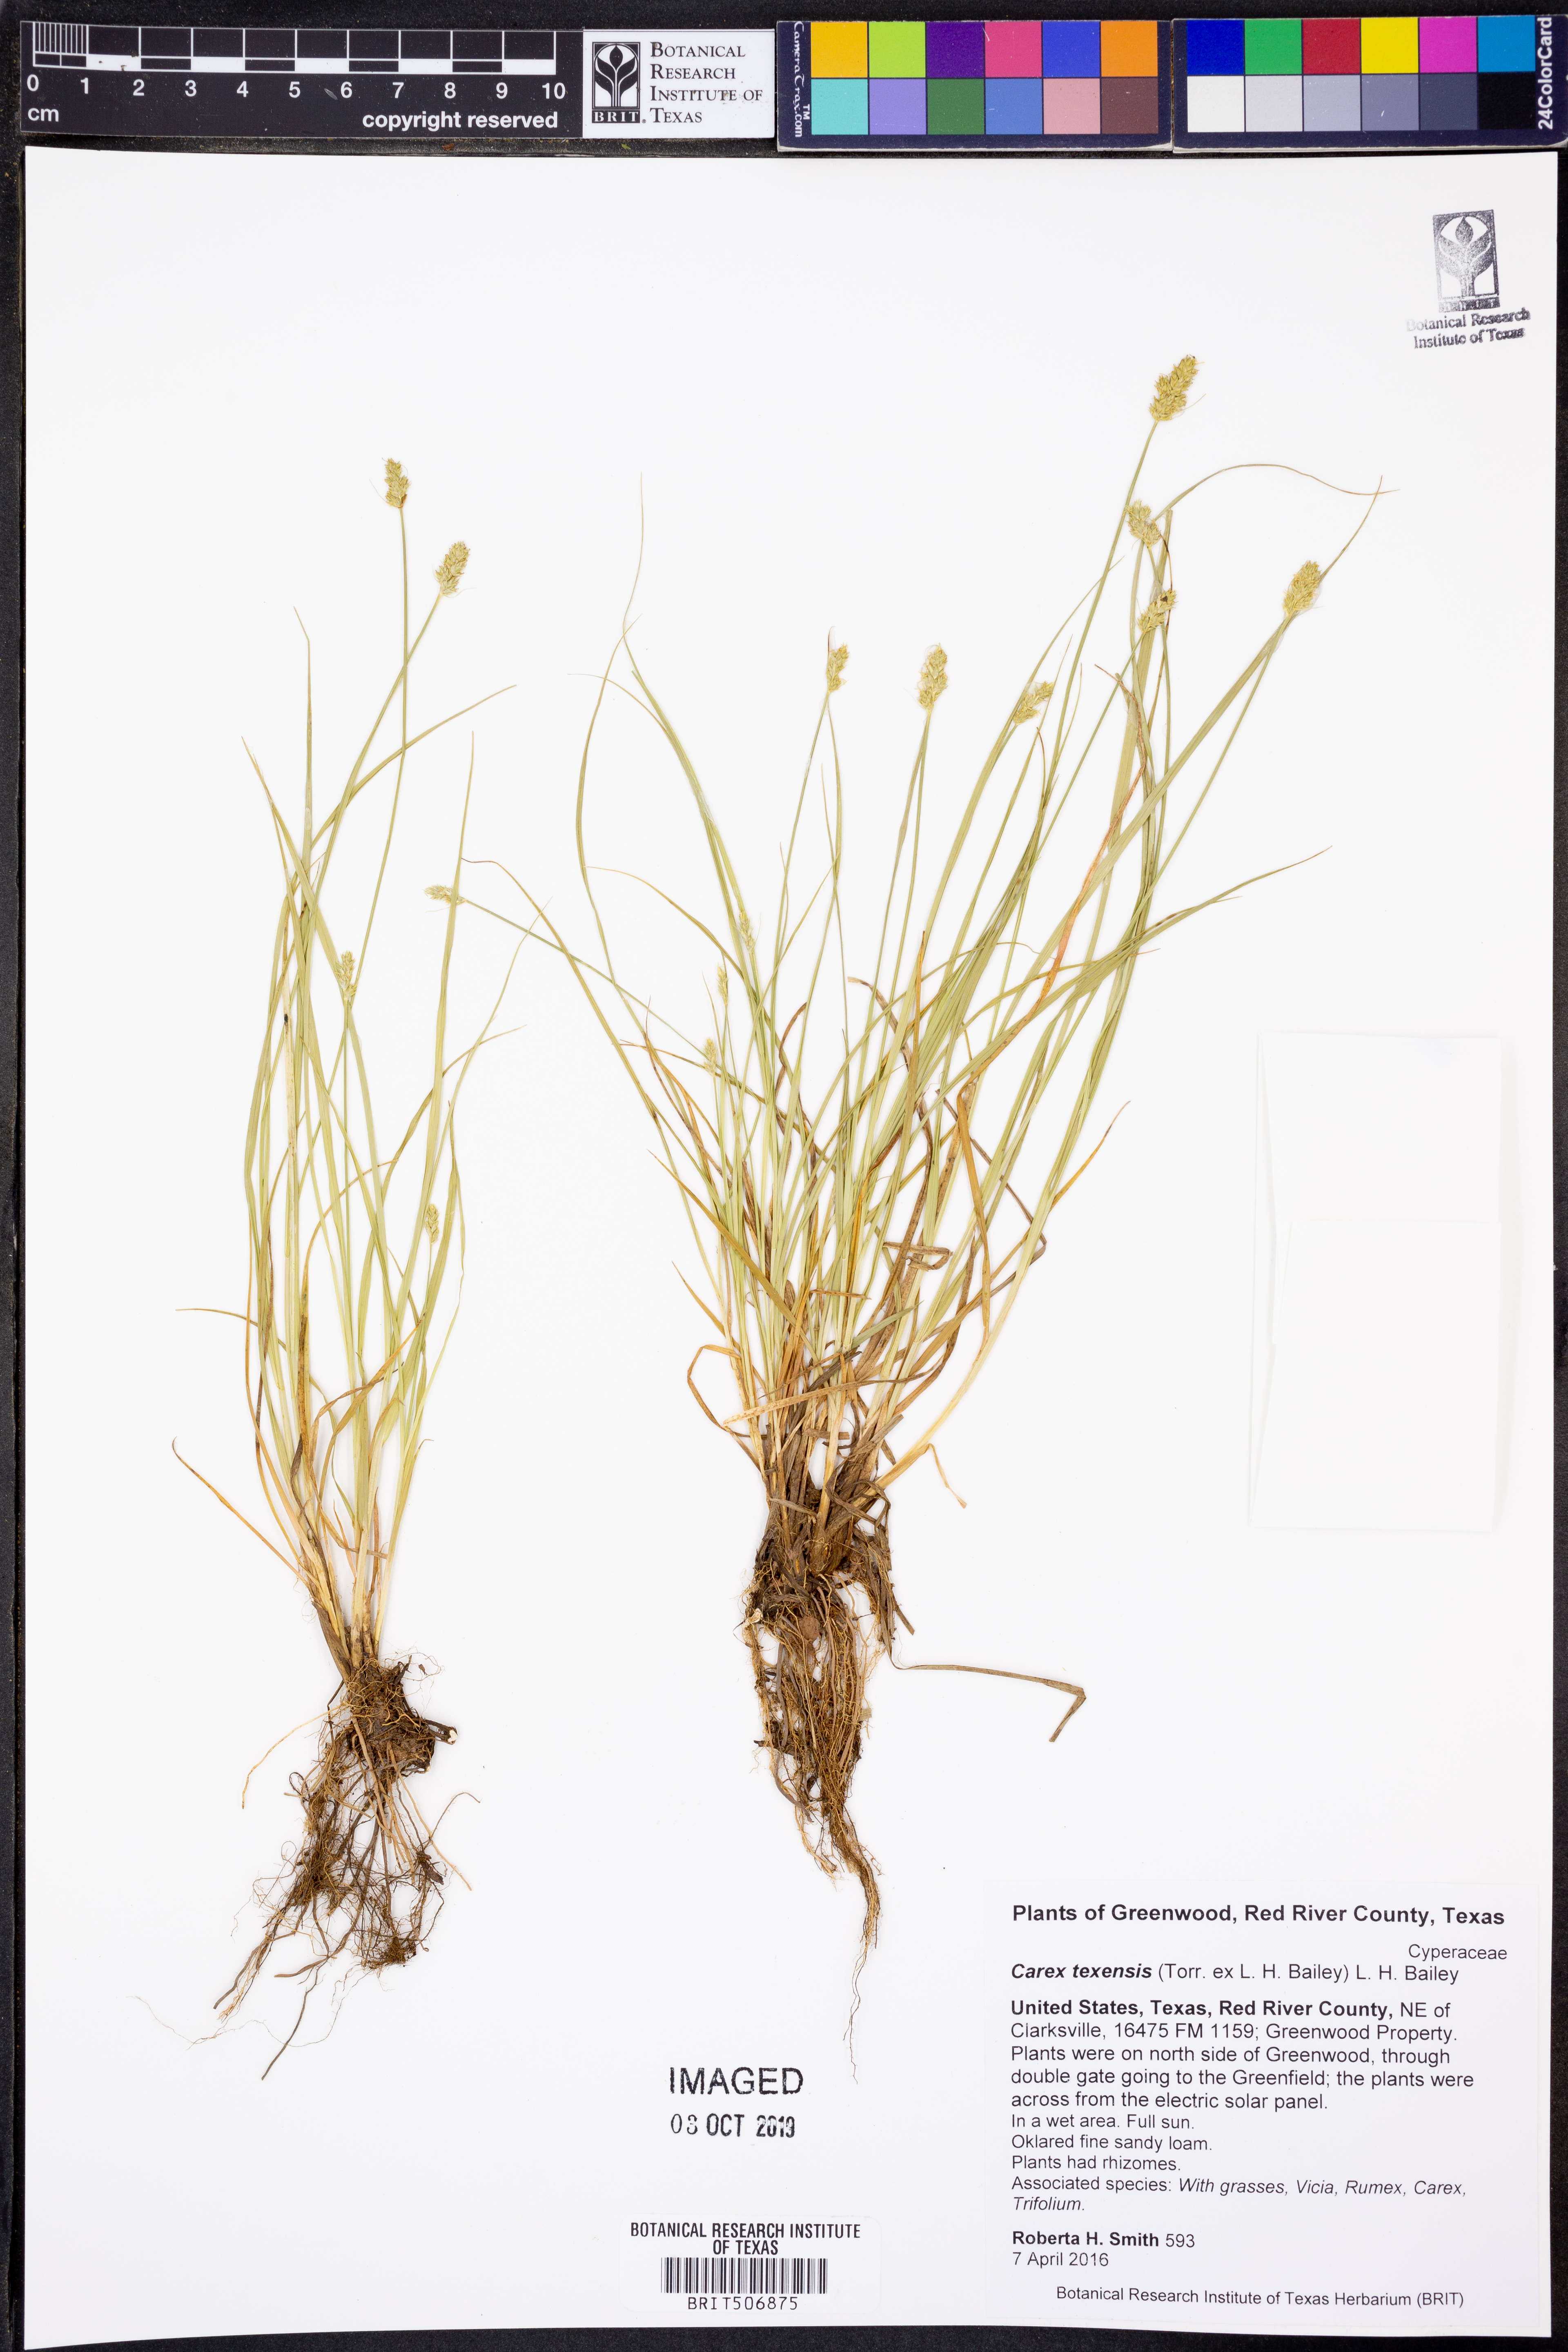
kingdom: Plantae
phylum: Tracheophyta
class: Liliopsida
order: Poales
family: Cyperaceae
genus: Carex
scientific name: Carex texensis
